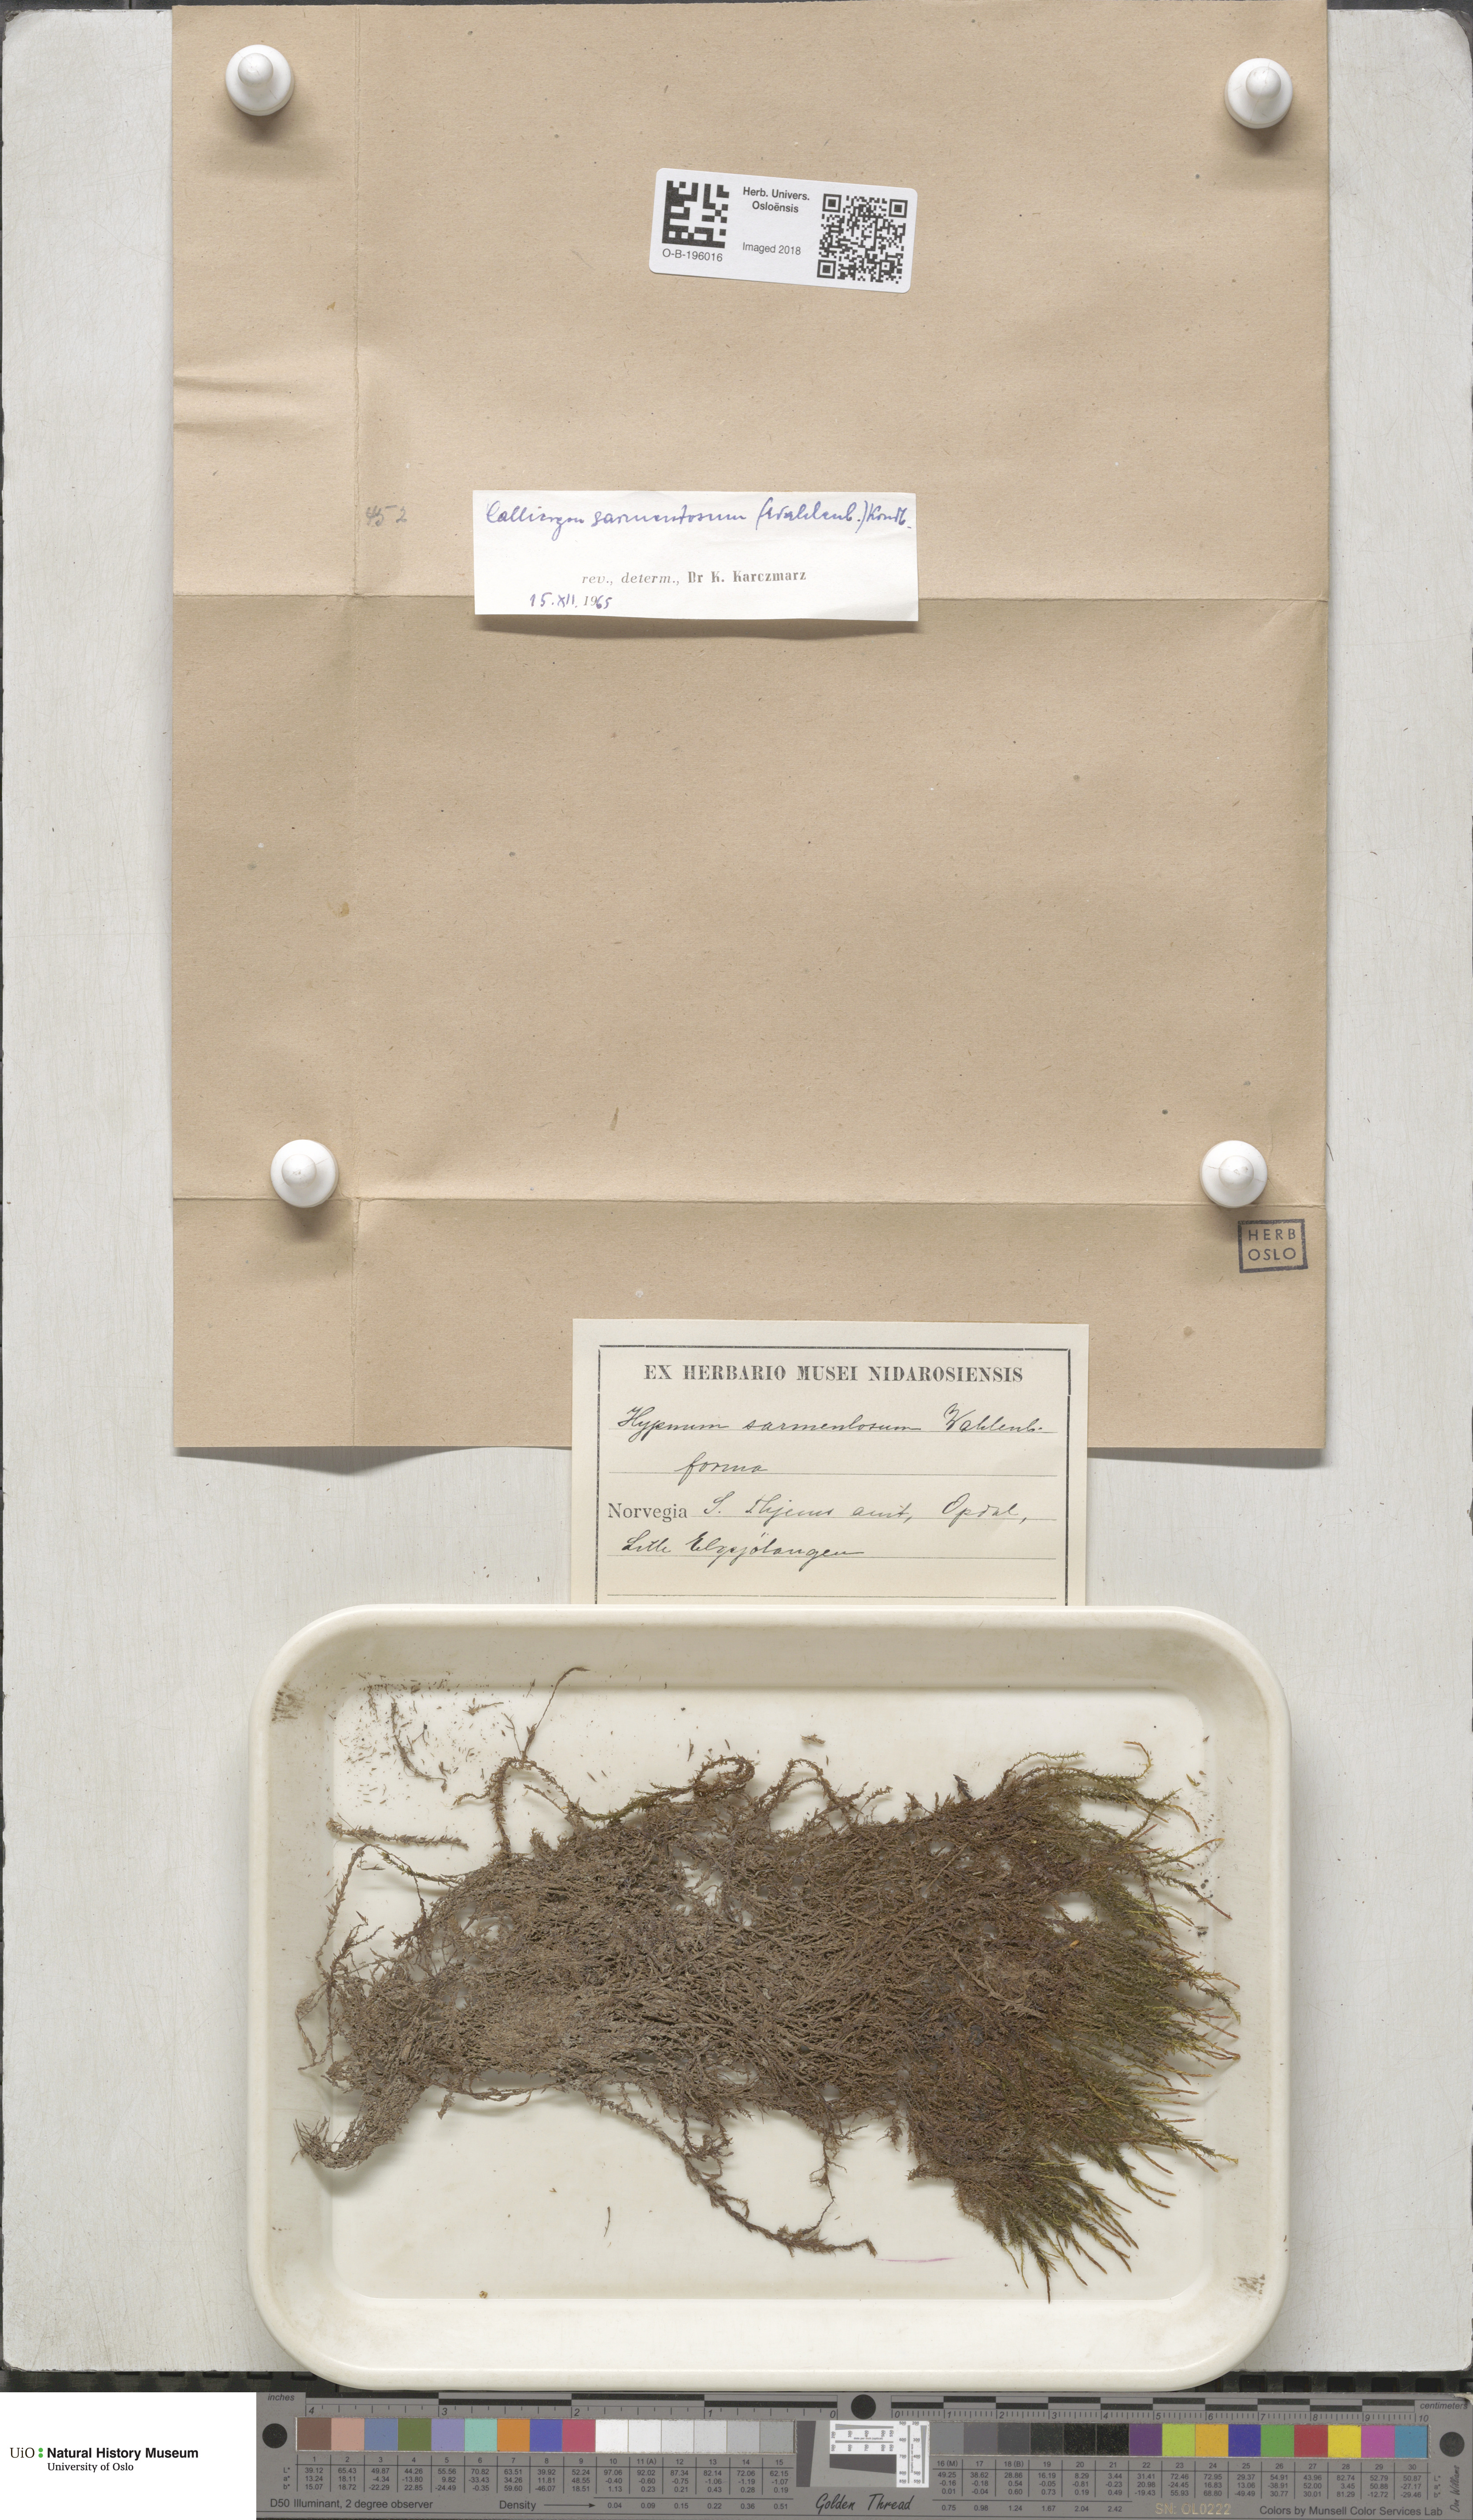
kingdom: Plantae
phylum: Bryophyta
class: Bryopsida
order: Hypnales
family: Calliergonaceae
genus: Sarmentypnum
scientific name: Sarmentypnum sarmentosum
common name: Twiggy spoon moss
